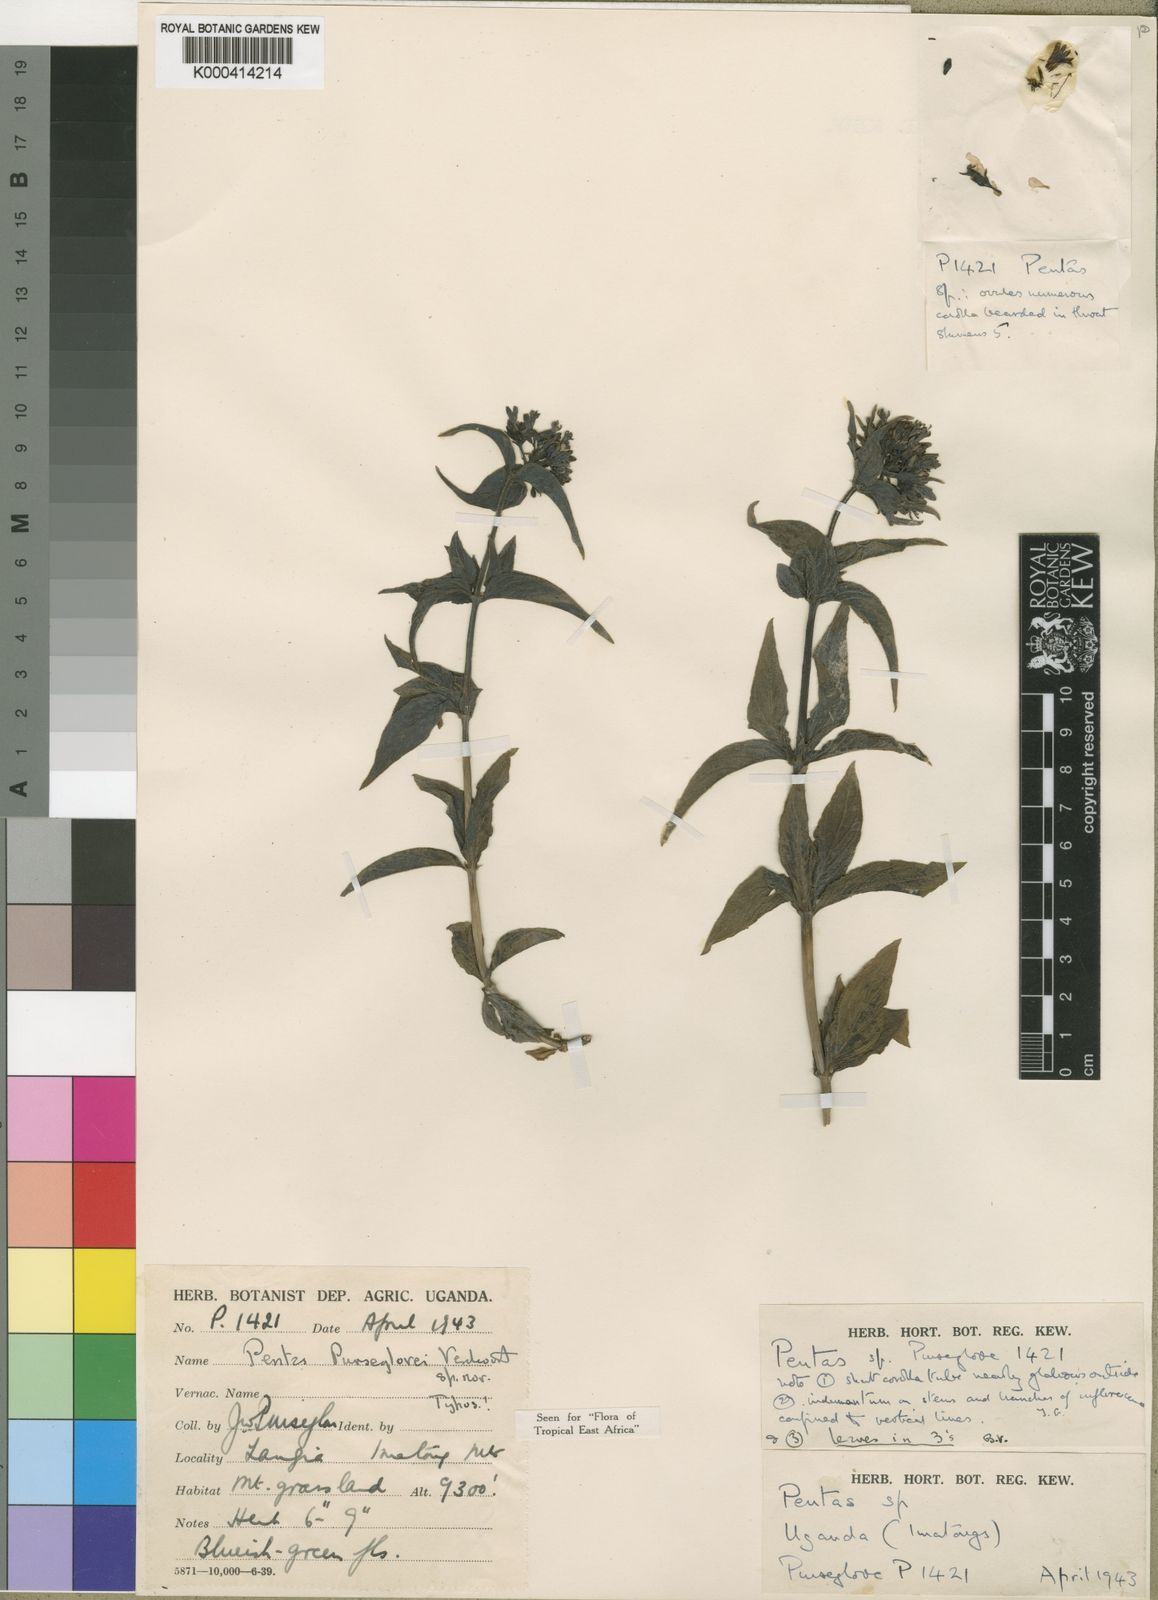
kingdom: Plantae
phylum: Tracheophyta
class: Magnoliopsida
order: Gentianales
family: Rubiaceae
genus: Pentas
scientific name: Pentas purseglovei
